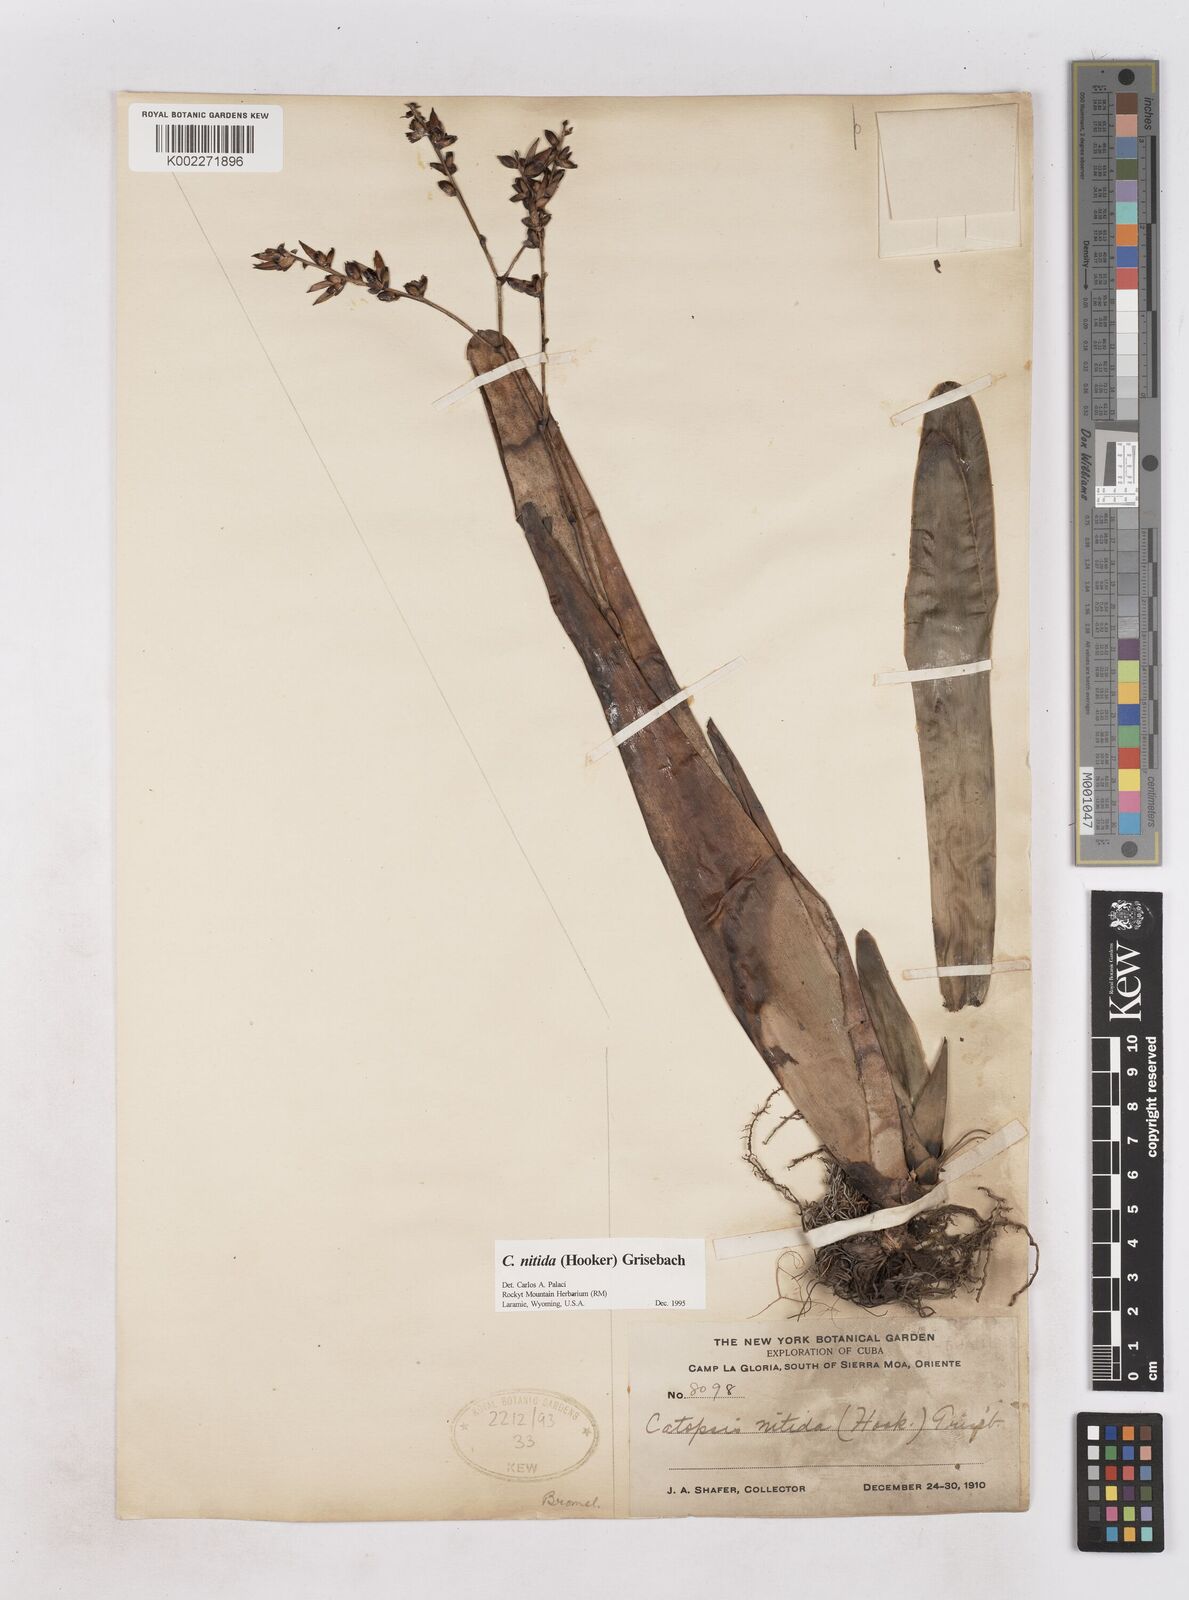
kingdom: Plantae
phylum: Tracheophyta
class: Liliopsida
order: Poales
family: Bromeliaceae
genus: Catopsis
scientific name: Catopsis nitida
